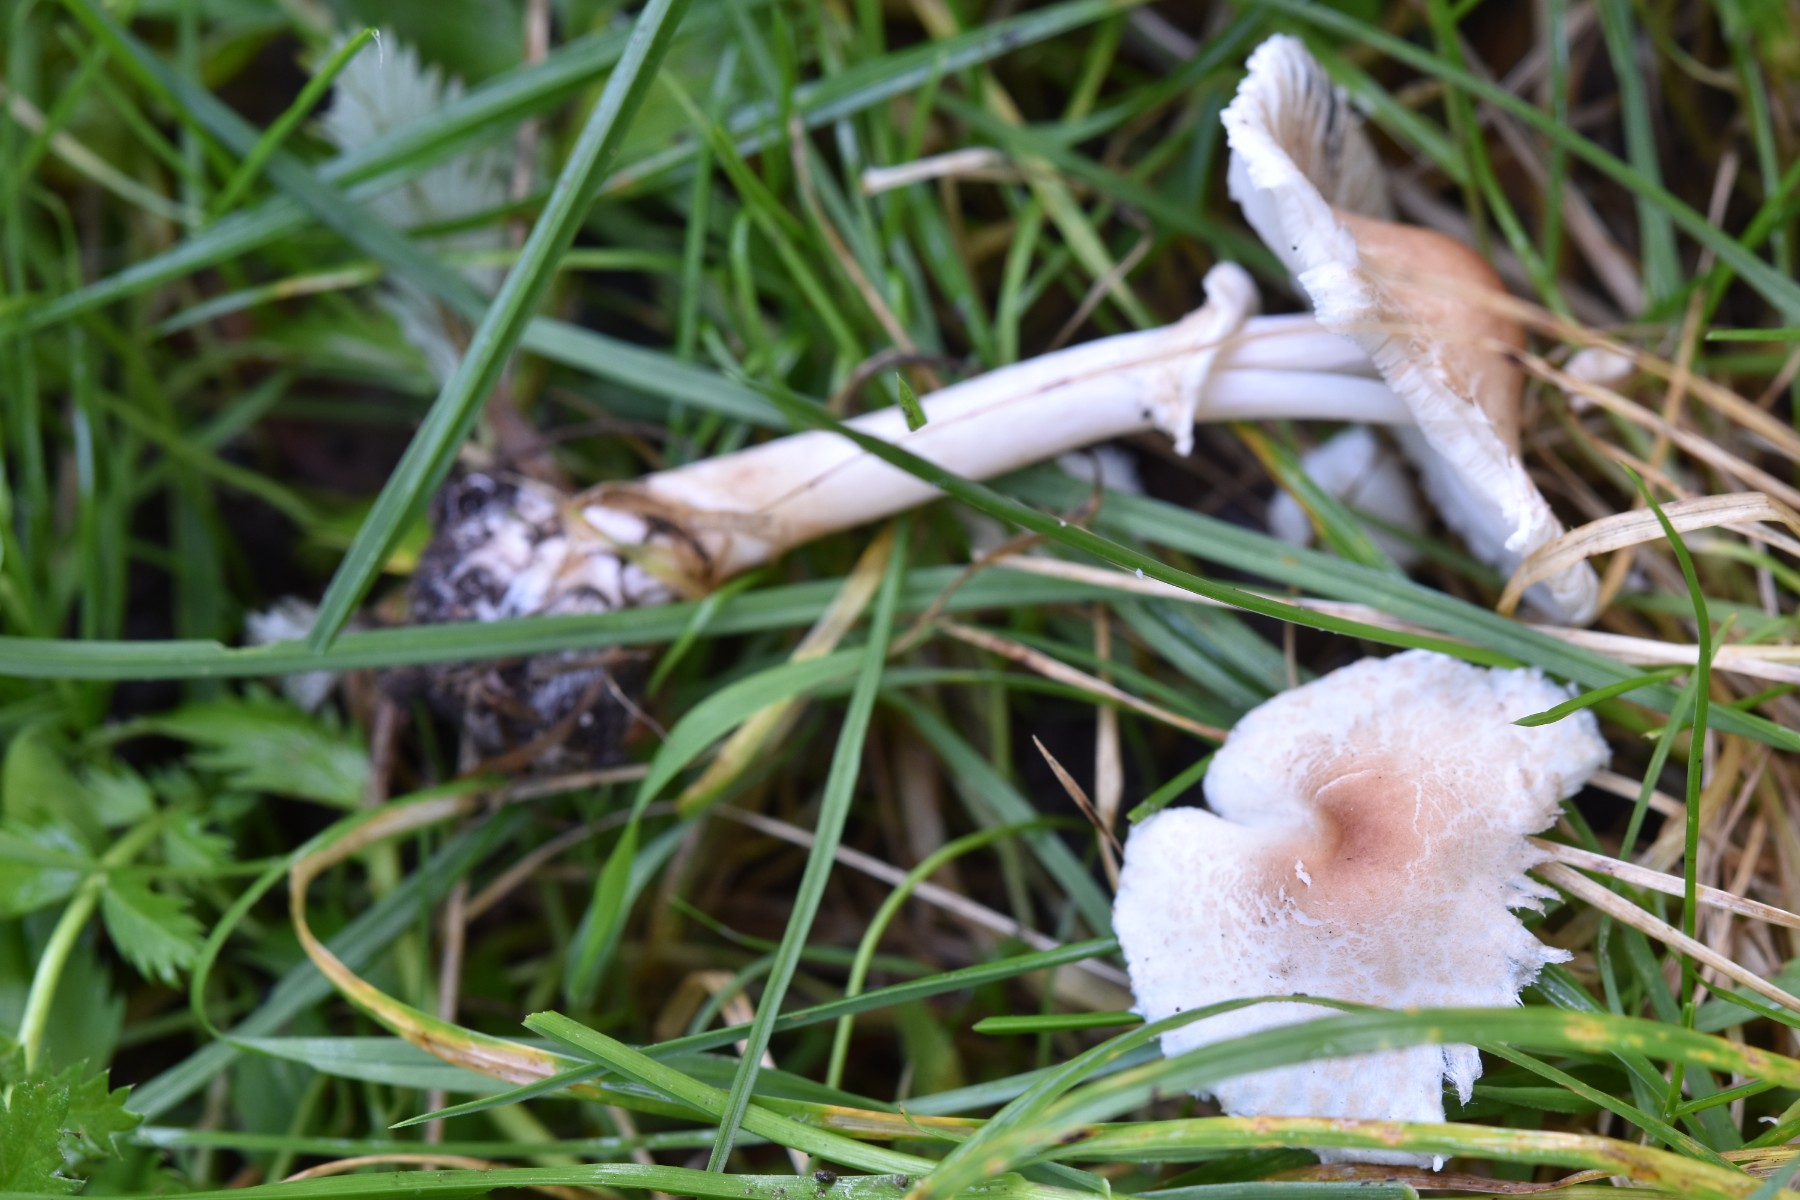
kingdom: Fungi
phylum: Basidiomycota
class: Agaricomycetes
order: Agaricales
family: Agaricaceae
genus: Lepiota
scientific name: Lepiota cristata
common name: stinkende parasolhat
